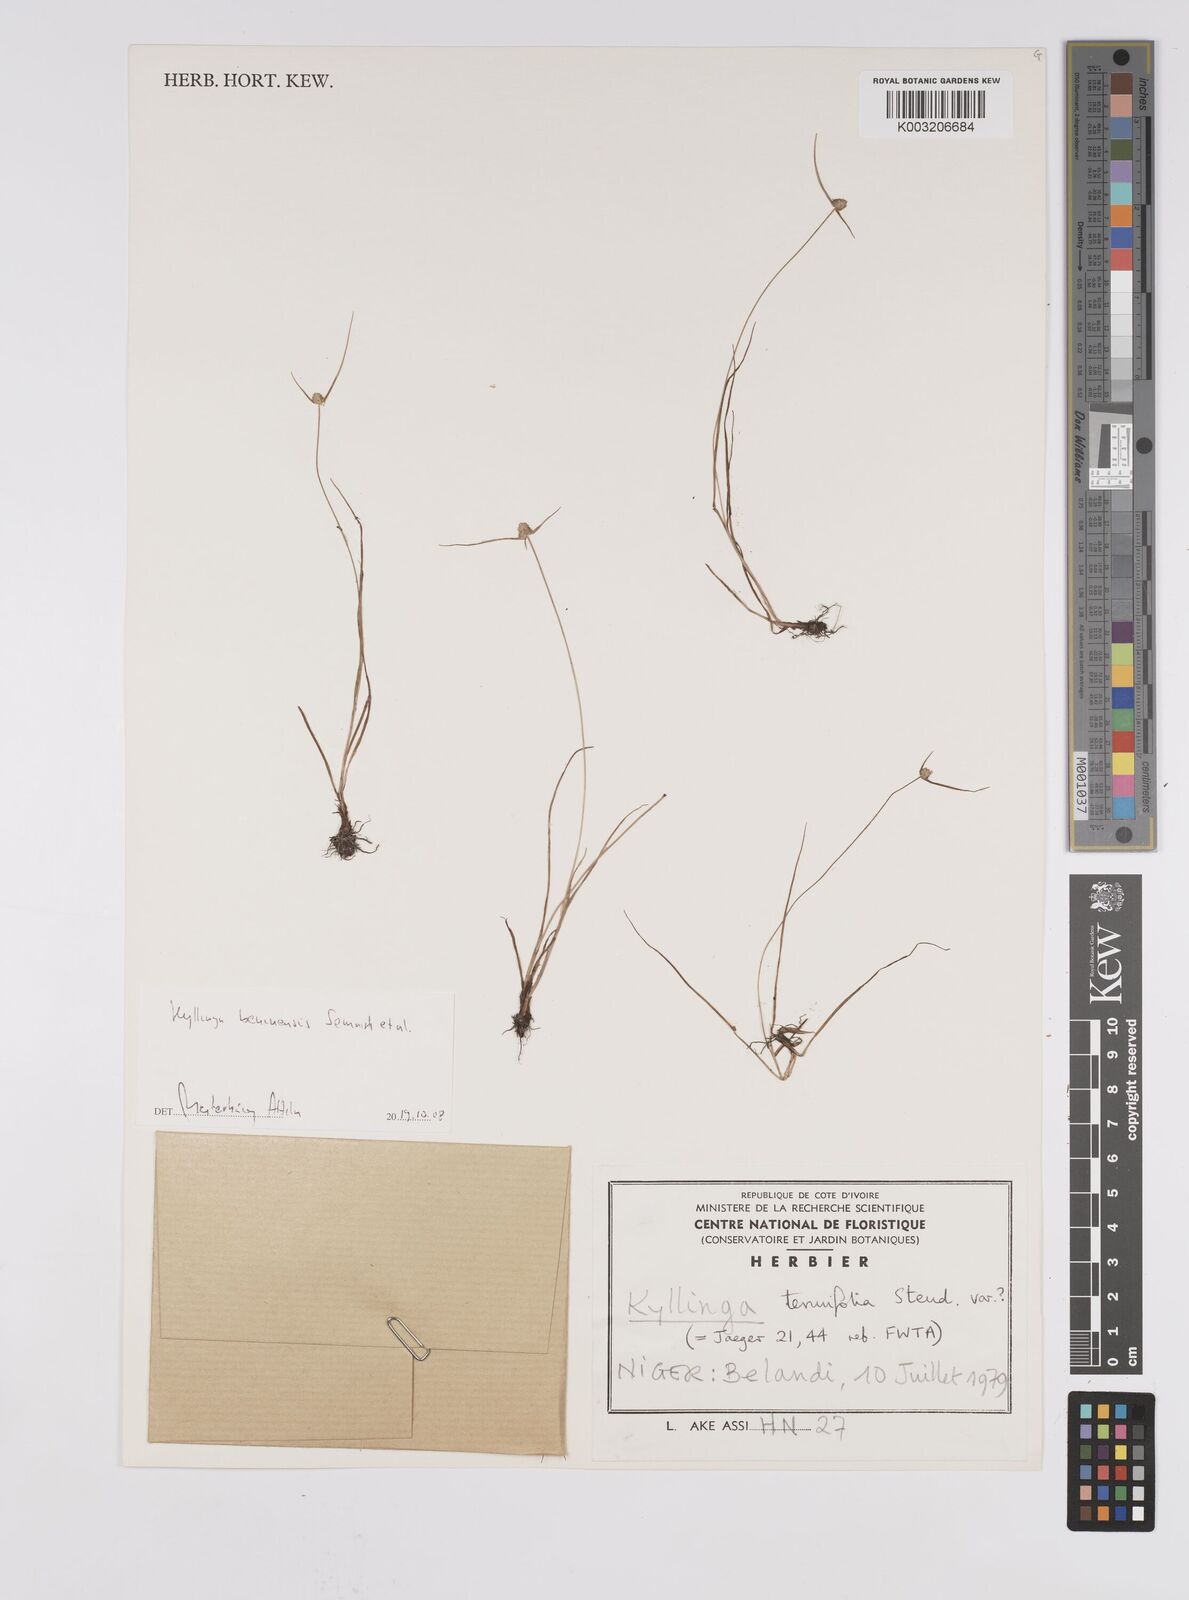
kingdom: Plantae
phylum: Tracheophyta
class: Liliopsida
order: Poales
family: Cyperaceae
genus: Cyperus
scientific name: Cyperus beninensis
